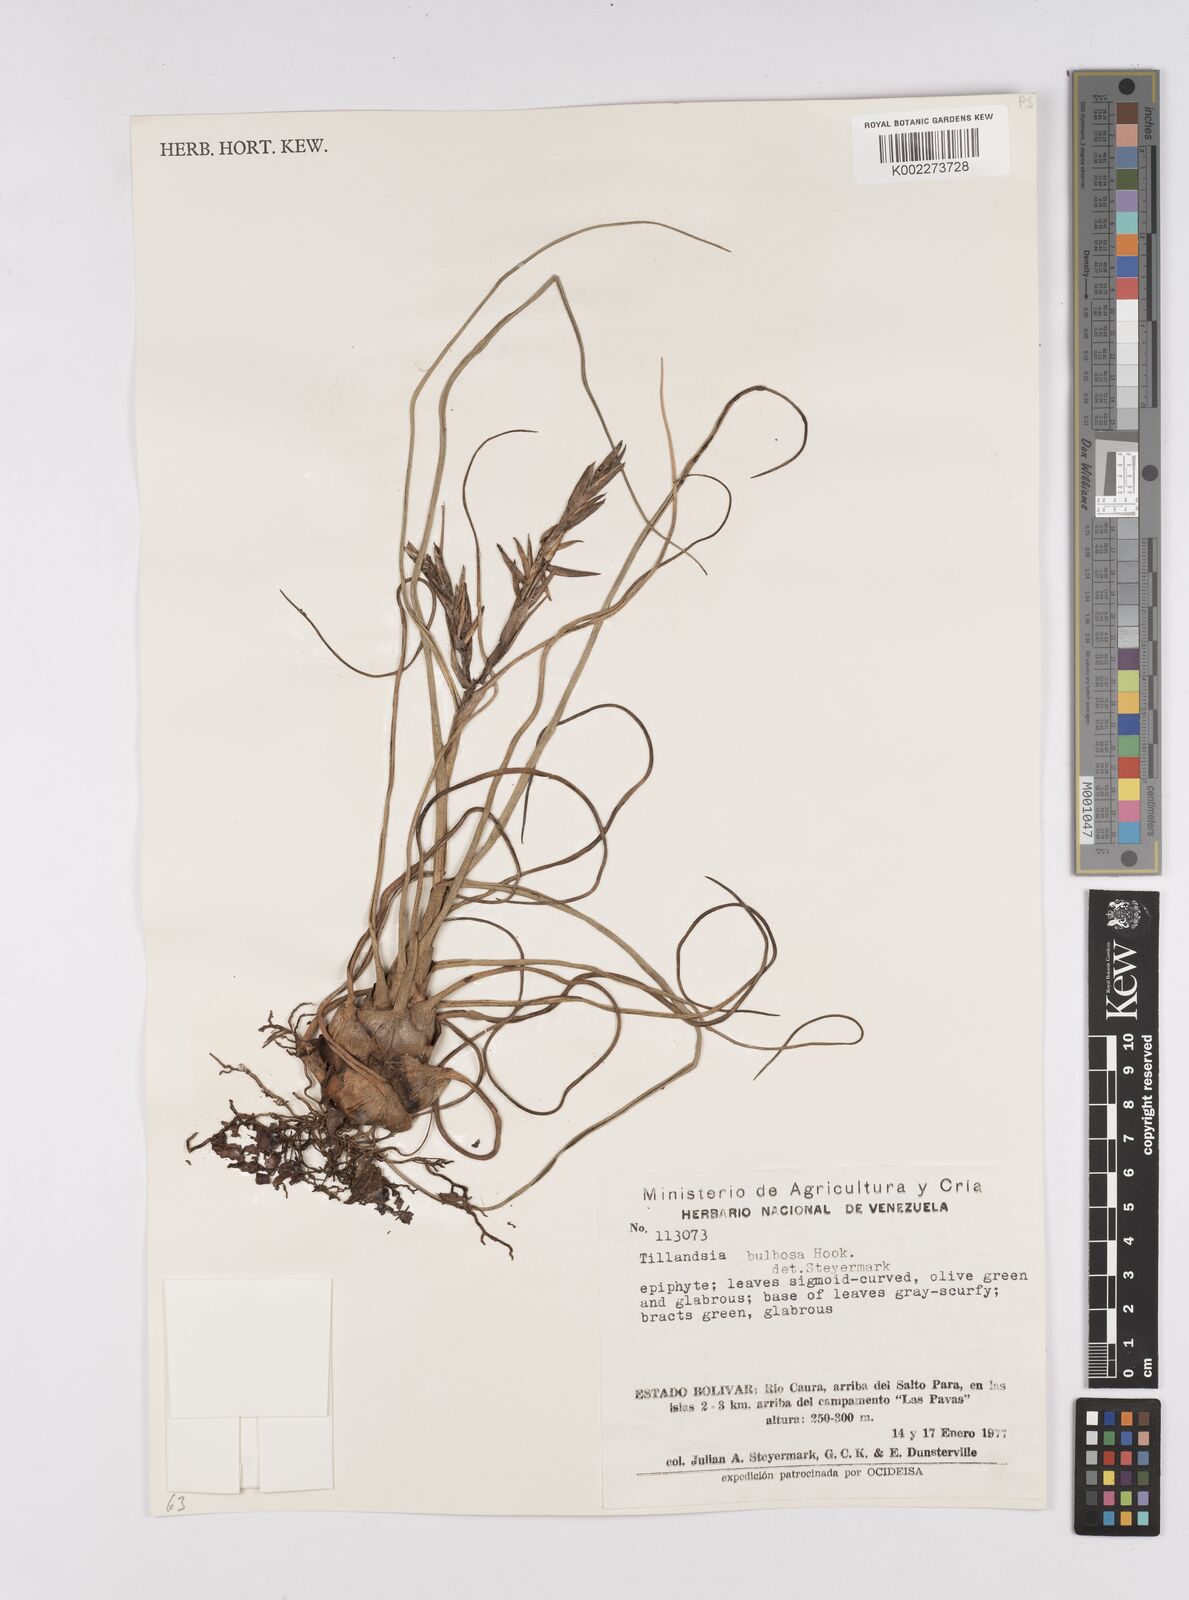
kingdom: Plantae
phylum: Tracheophyta
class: Liliopsida
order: Poales
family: Bromeliaceae
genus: Tillandsia
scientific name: Tillandsia bulbosa
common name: Bulbous airplant
